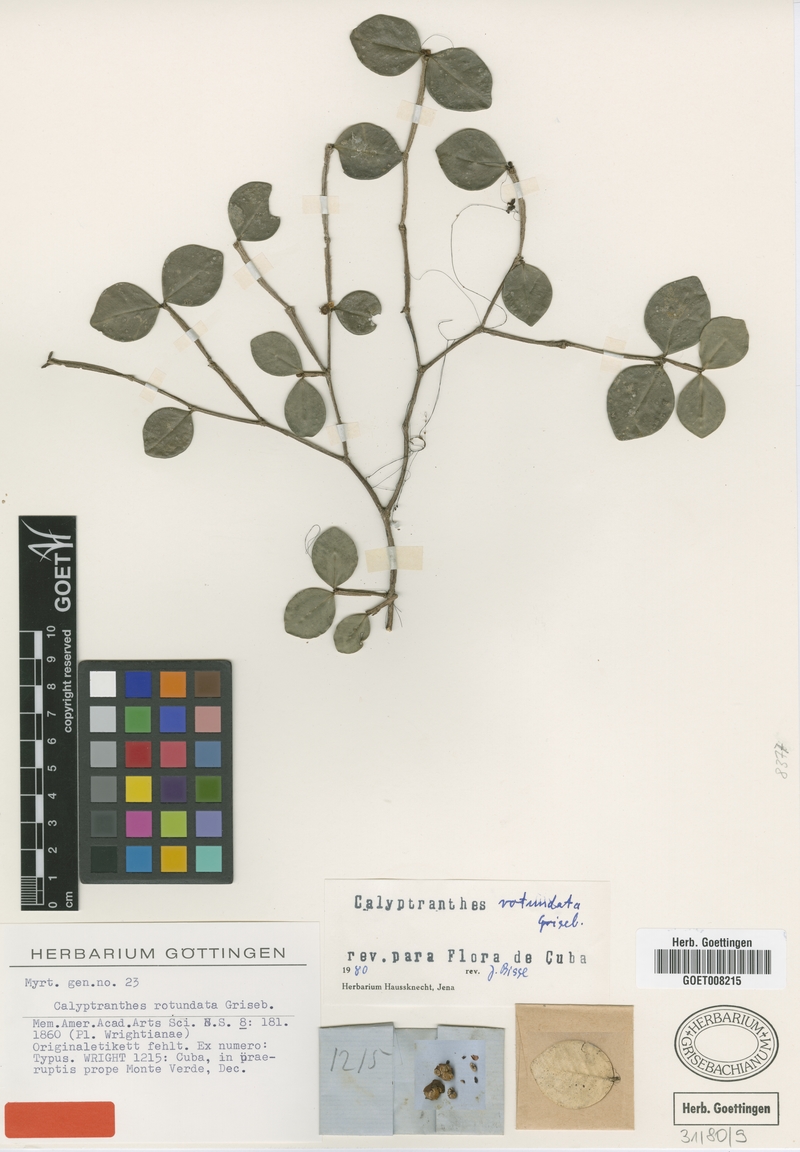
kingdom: Plantae
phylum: Tracheophyta
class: Magnoliopsida
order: Myrtales
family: Myrtaceae
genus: Myrcia
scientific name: Myrcia circumdata
